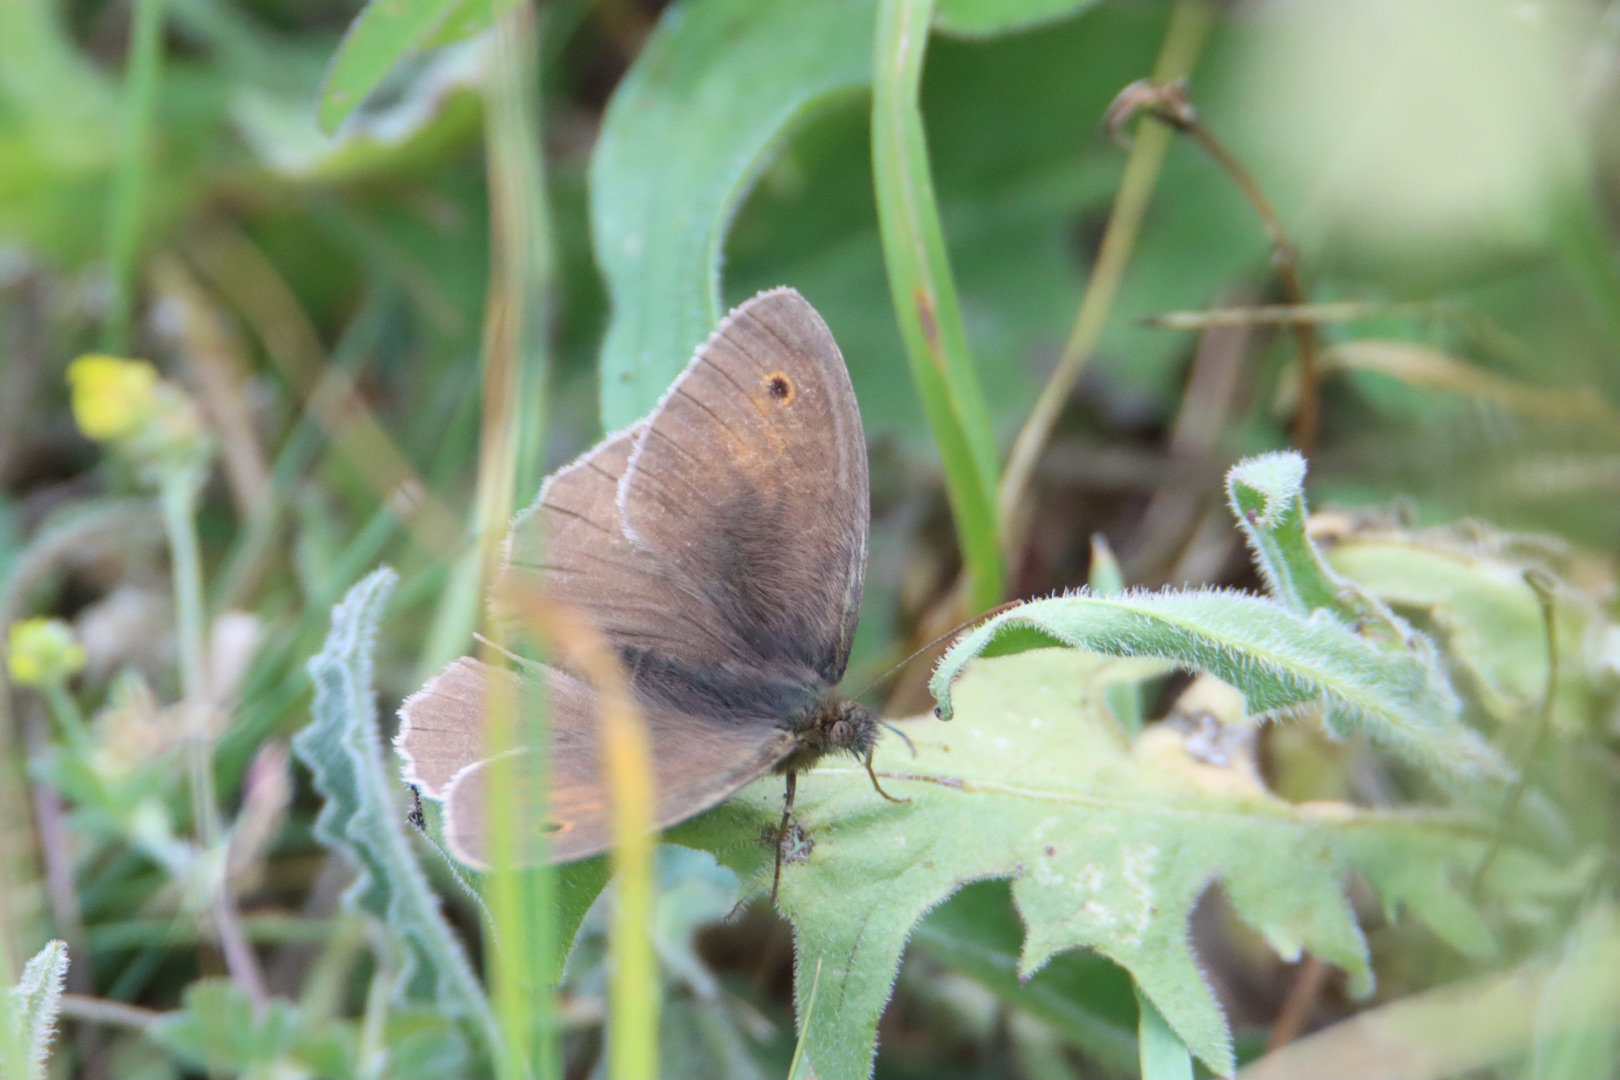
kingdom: Animalia
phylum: Arthropoda
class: Insecta
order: Lepidoptera
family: Nymphalidae
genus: Maniola
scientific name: Maniola jurtina
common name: Græsrandøje
